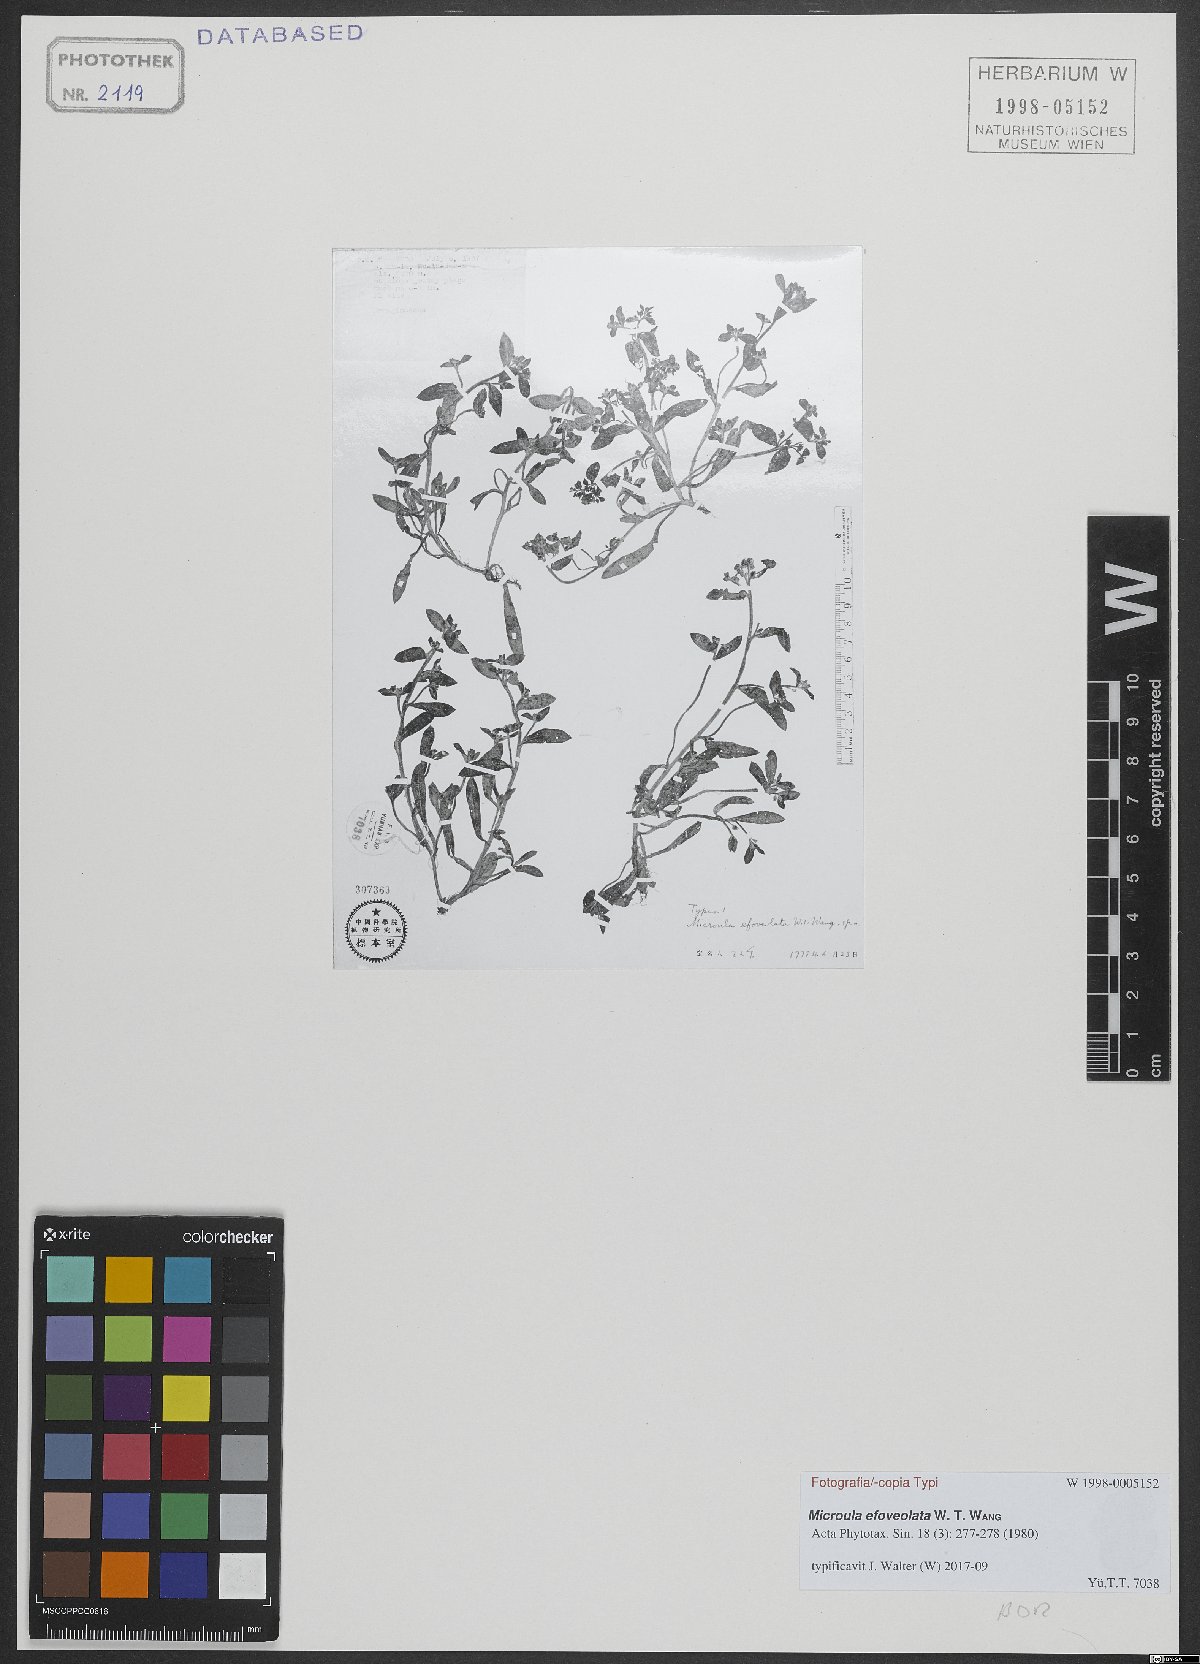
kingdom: Plantae
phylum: Tracheophyta
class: Magnoliopsida
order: Boraginales
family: Boraginaceae
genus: Microula
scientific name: Microula efoveolata
